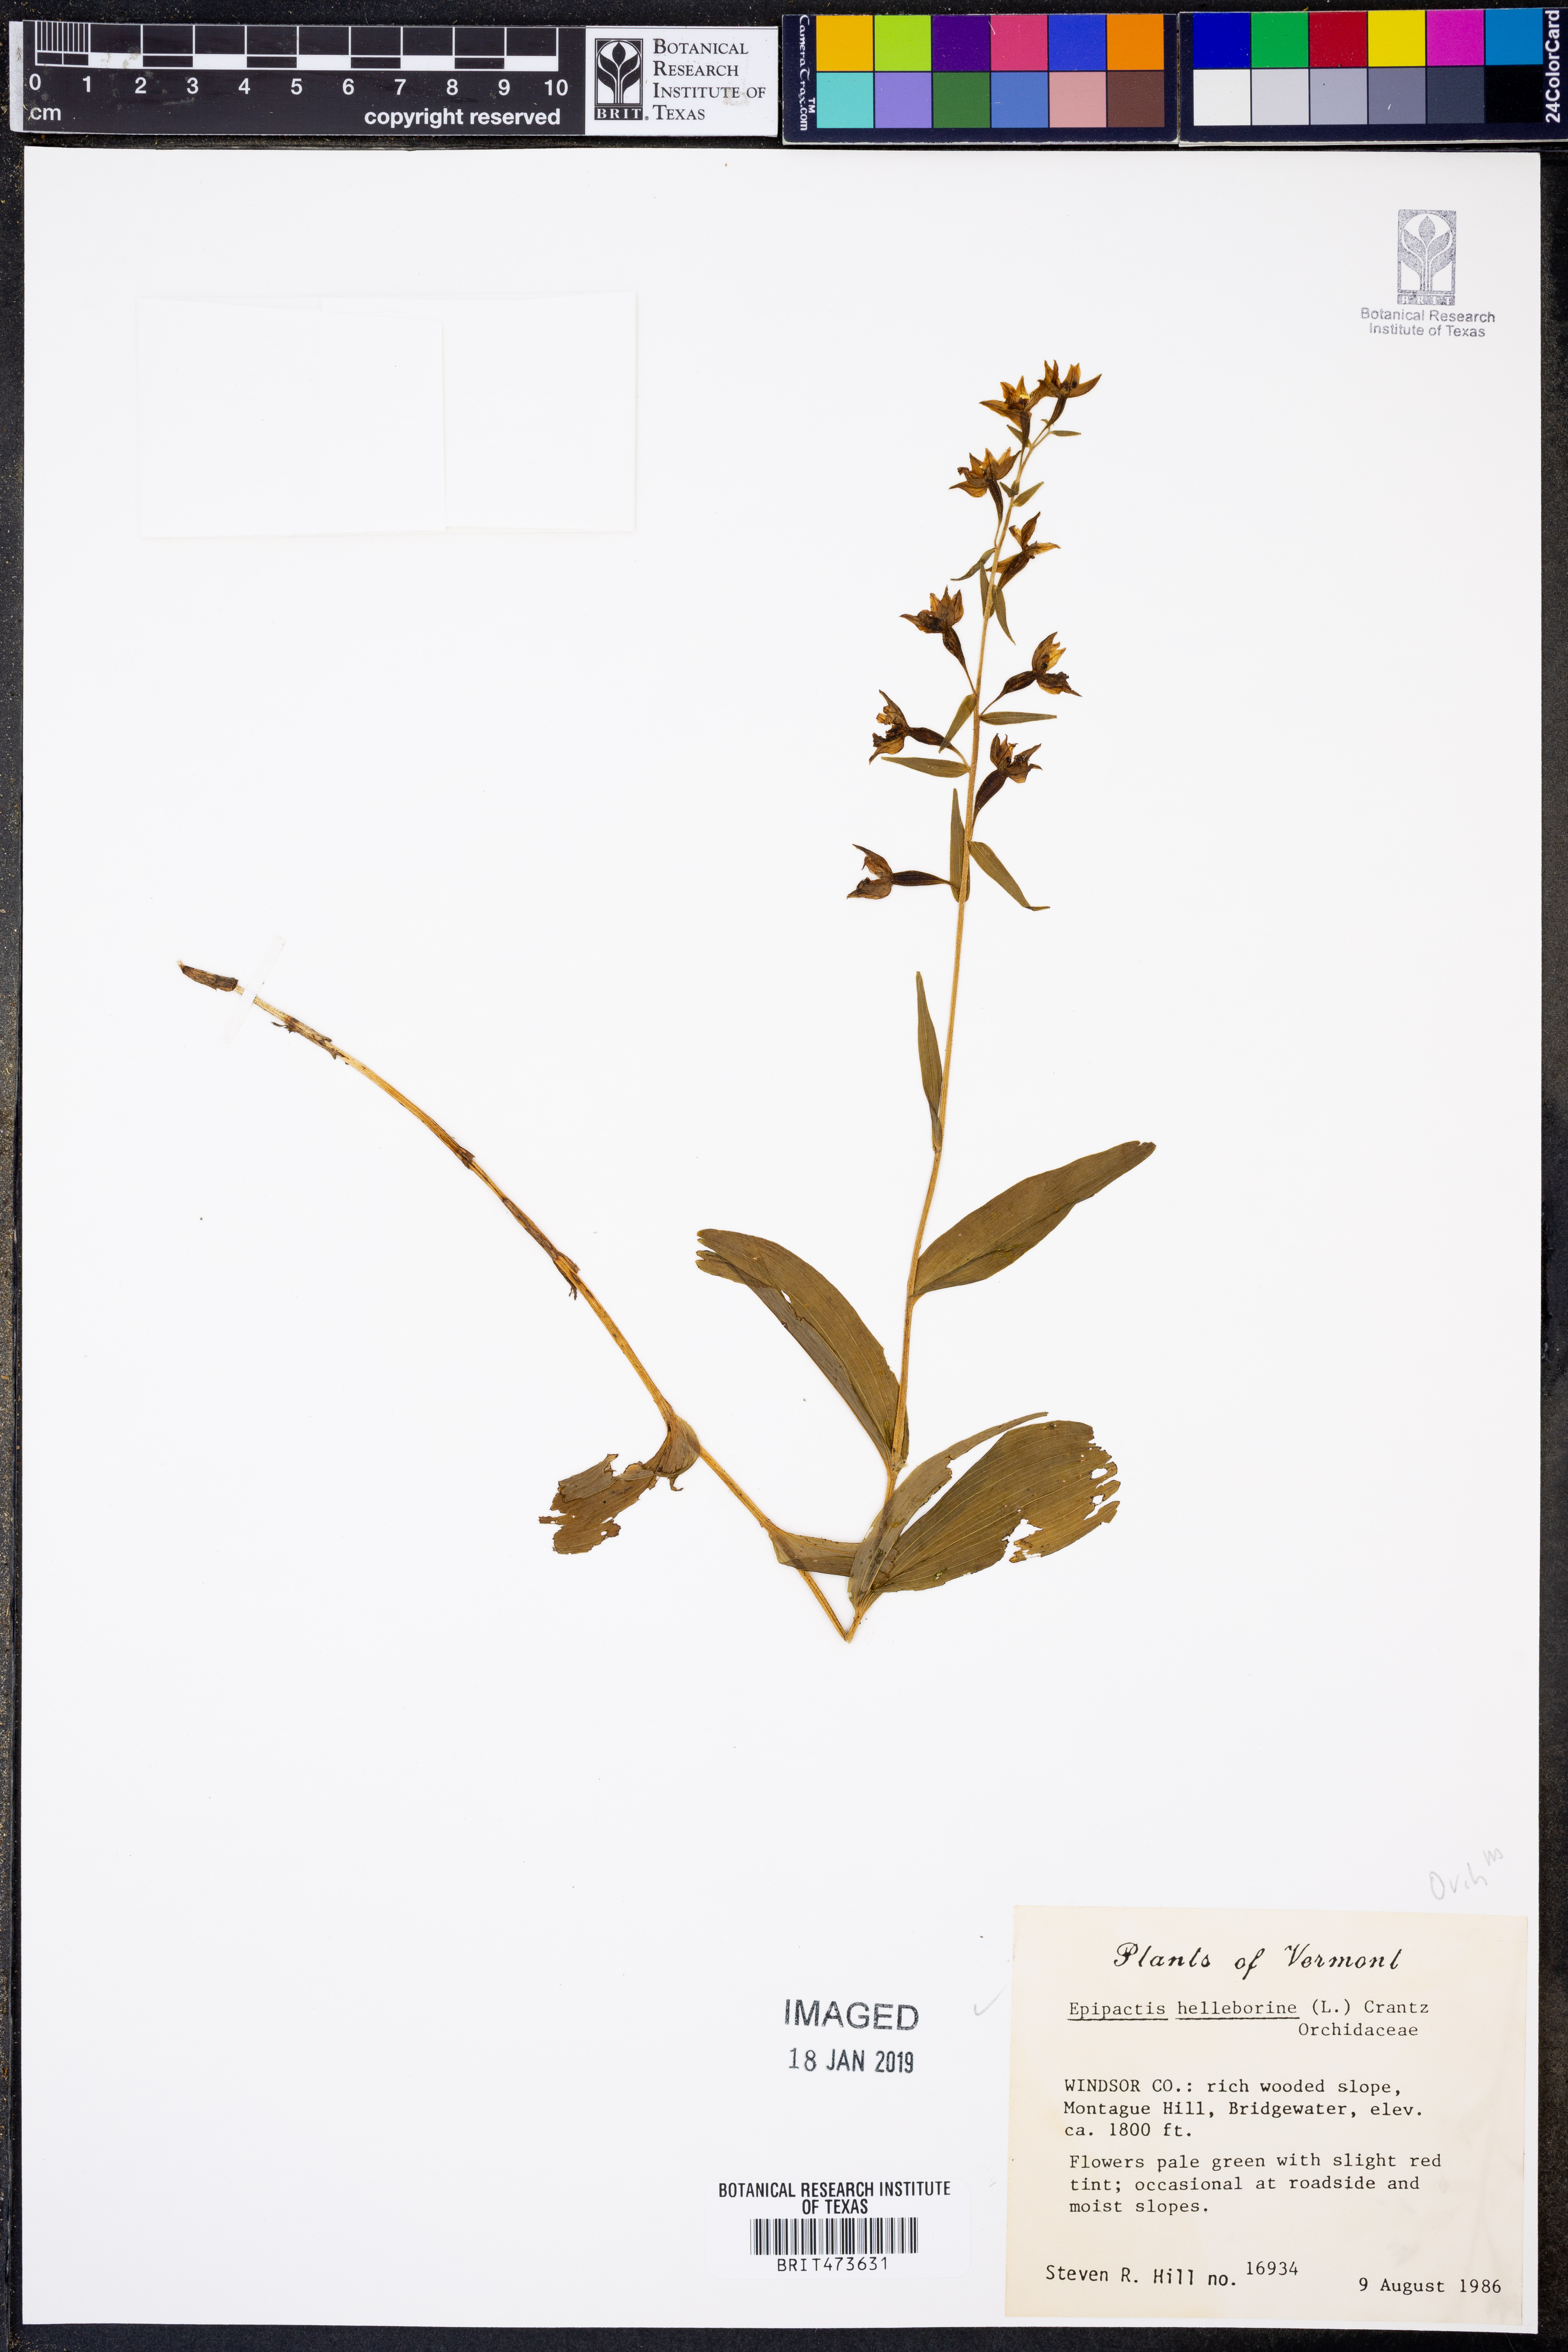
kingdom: Plantae
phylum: Tracheophyta
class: Liliopsida
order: Asparagales
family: Orchidaceae
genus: Epipactis
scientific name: Epipactis helleborine
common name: Broad-leaved helleborine
